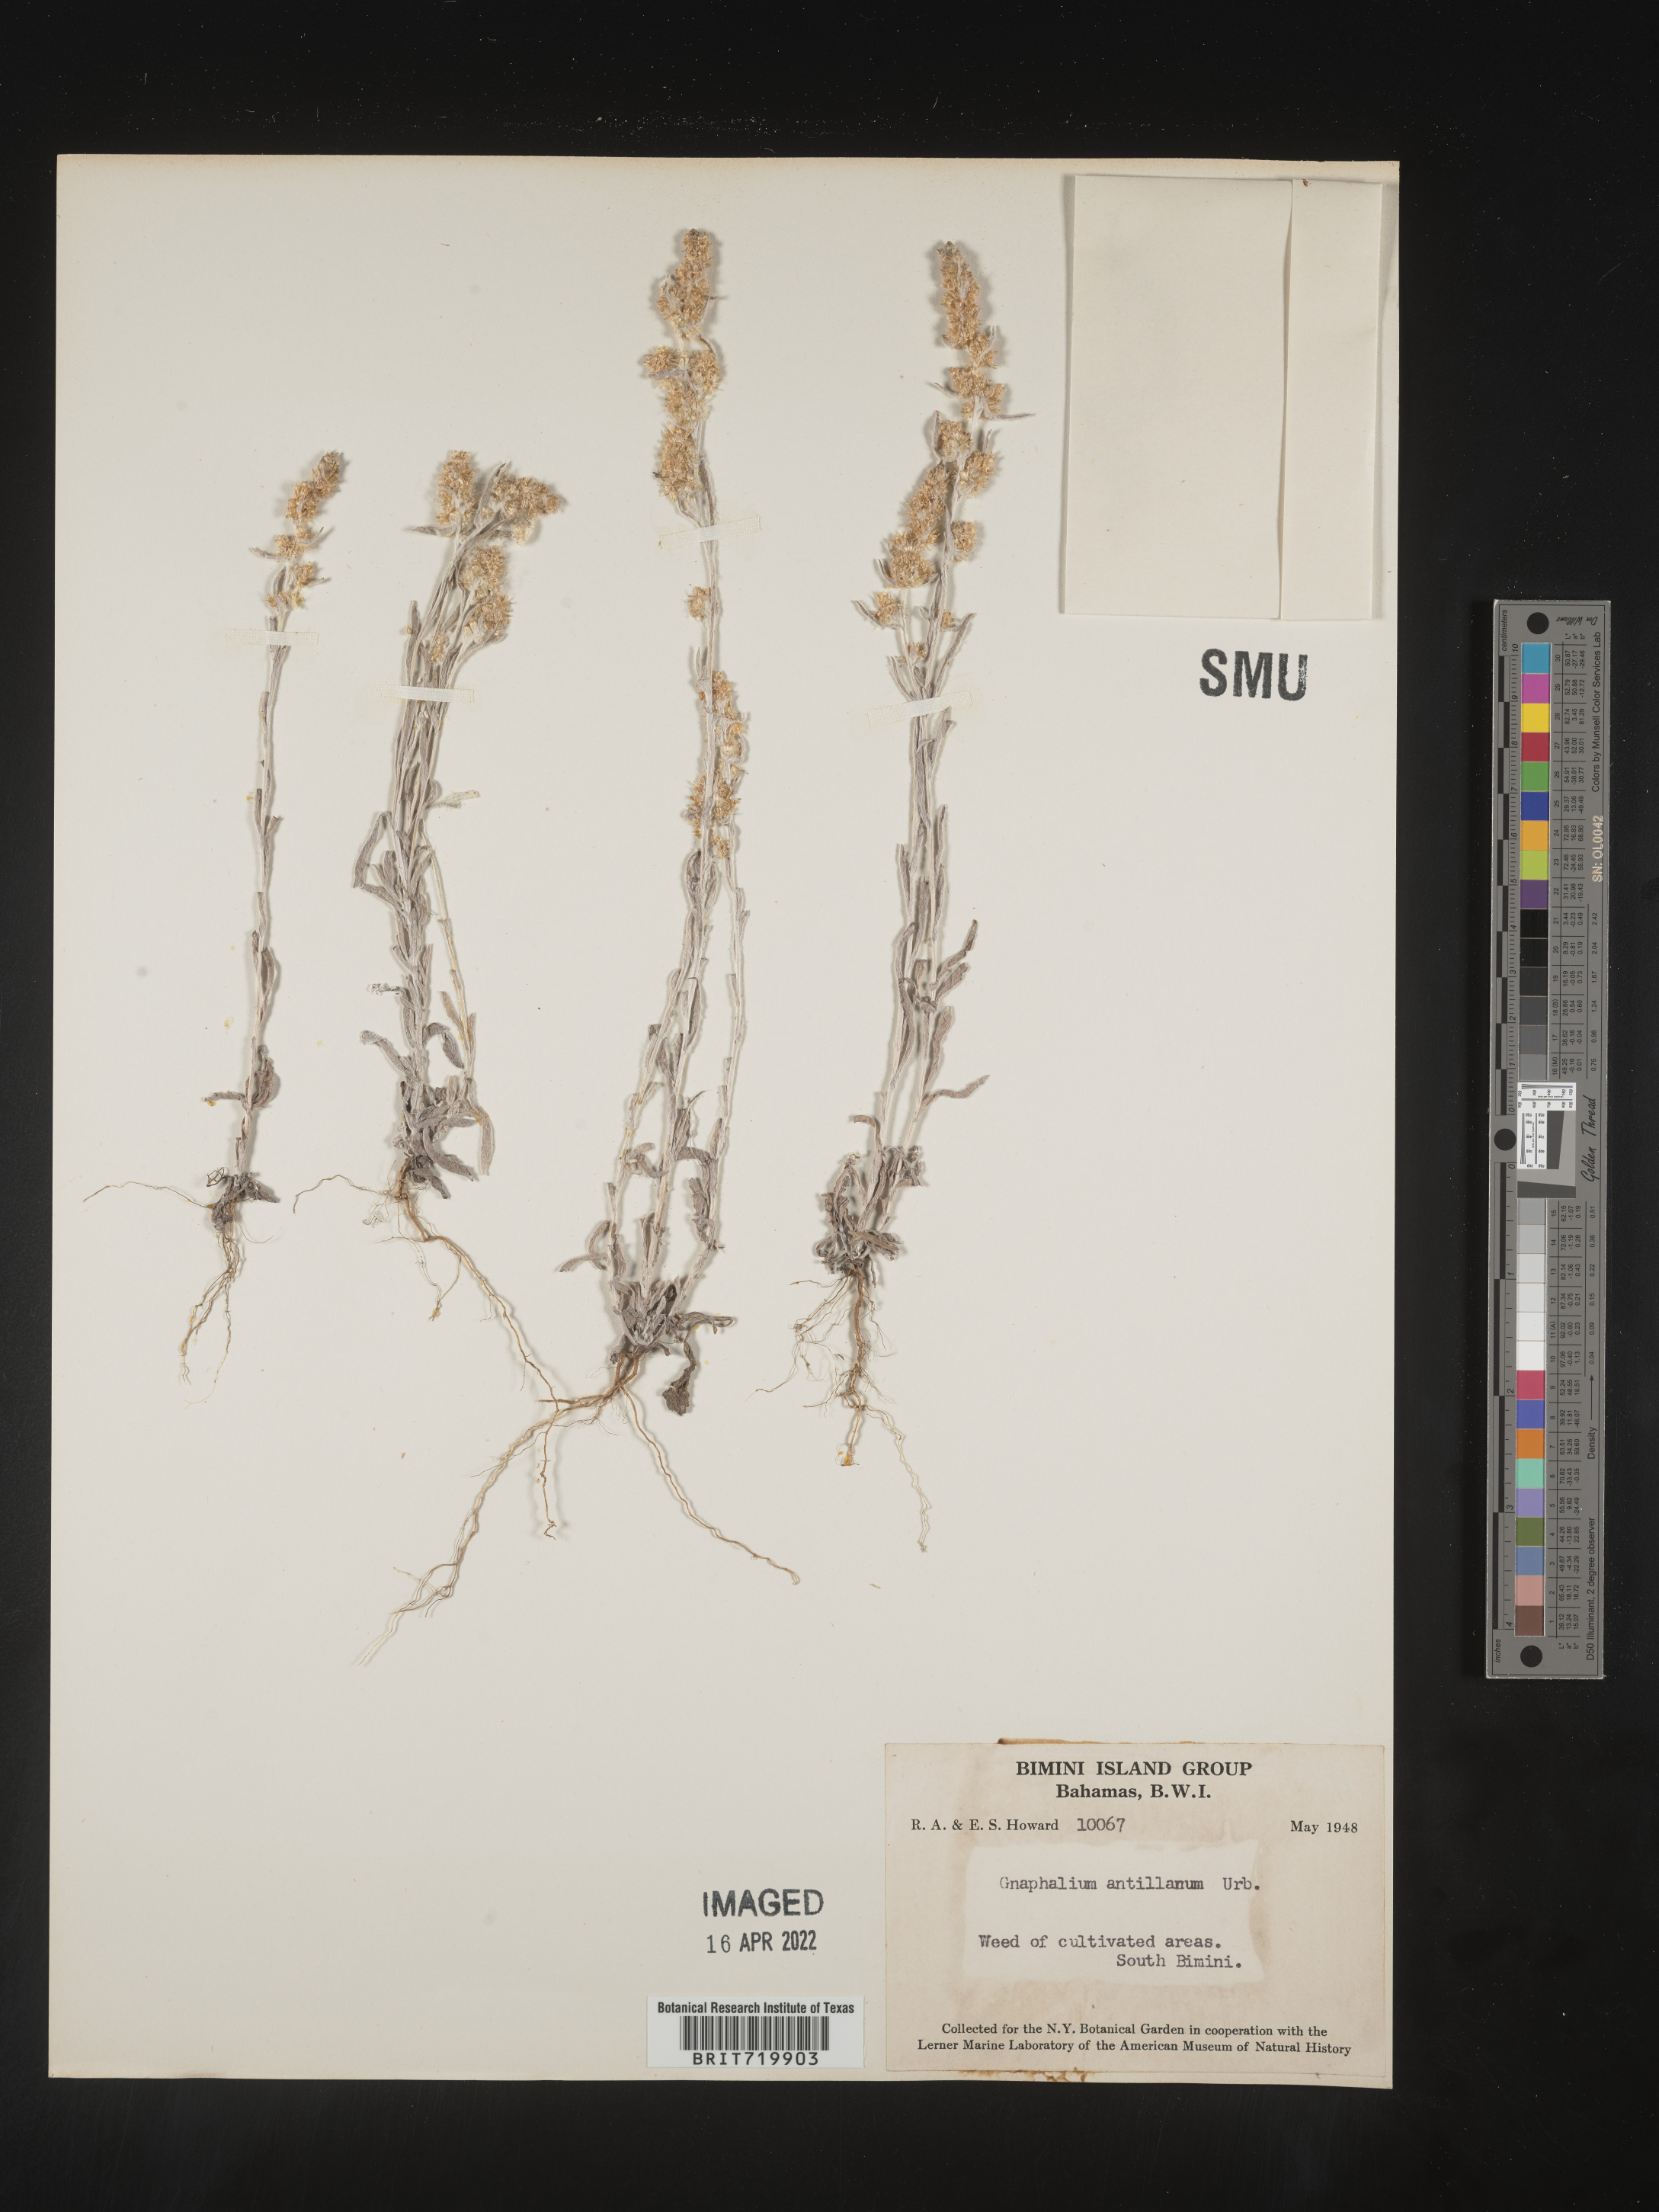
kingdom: Plantae
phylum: Tracheophyta
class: Magnoliopsida
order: Asterales
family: Asteraceae
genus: Gamochaeta
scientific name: Gamochaeta
